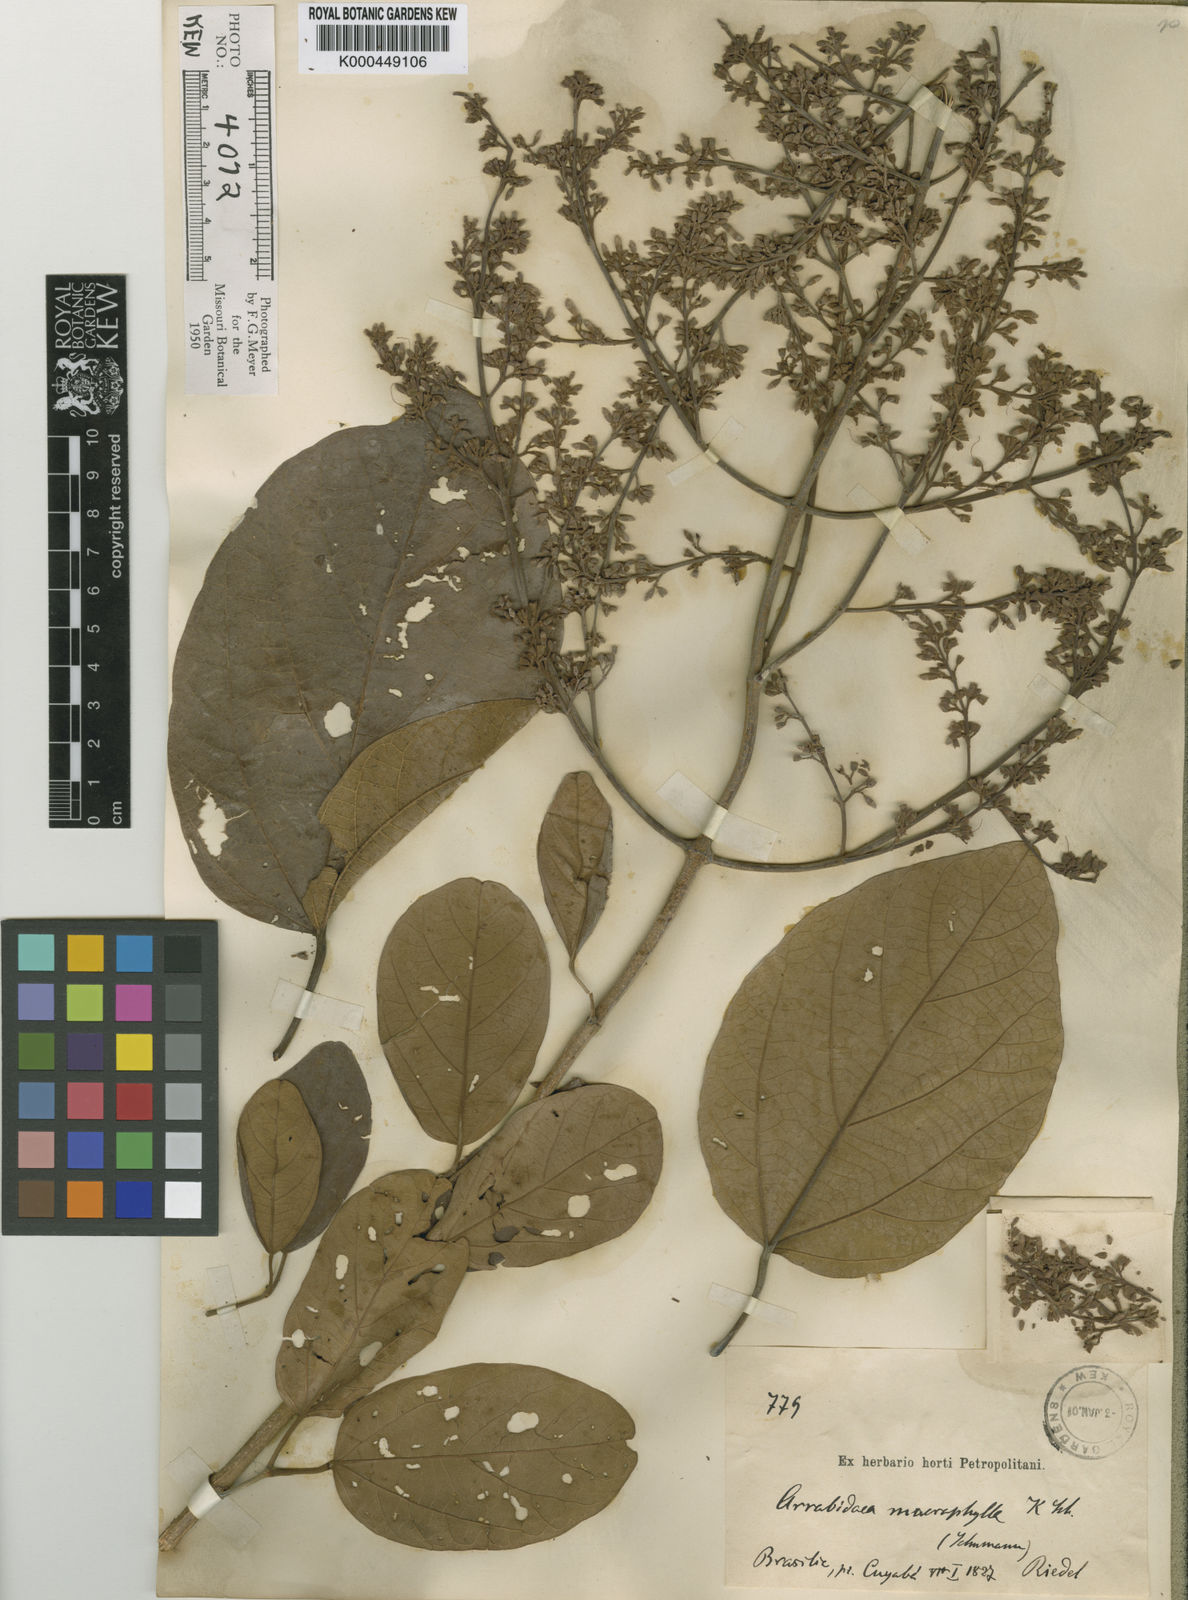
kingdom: Plantae
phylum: Tracheophyta
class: Magnoliopsida
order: Lamiales
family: Bignoniaceae
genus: Xylophragma
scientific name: Xylophragma platyphyllum
